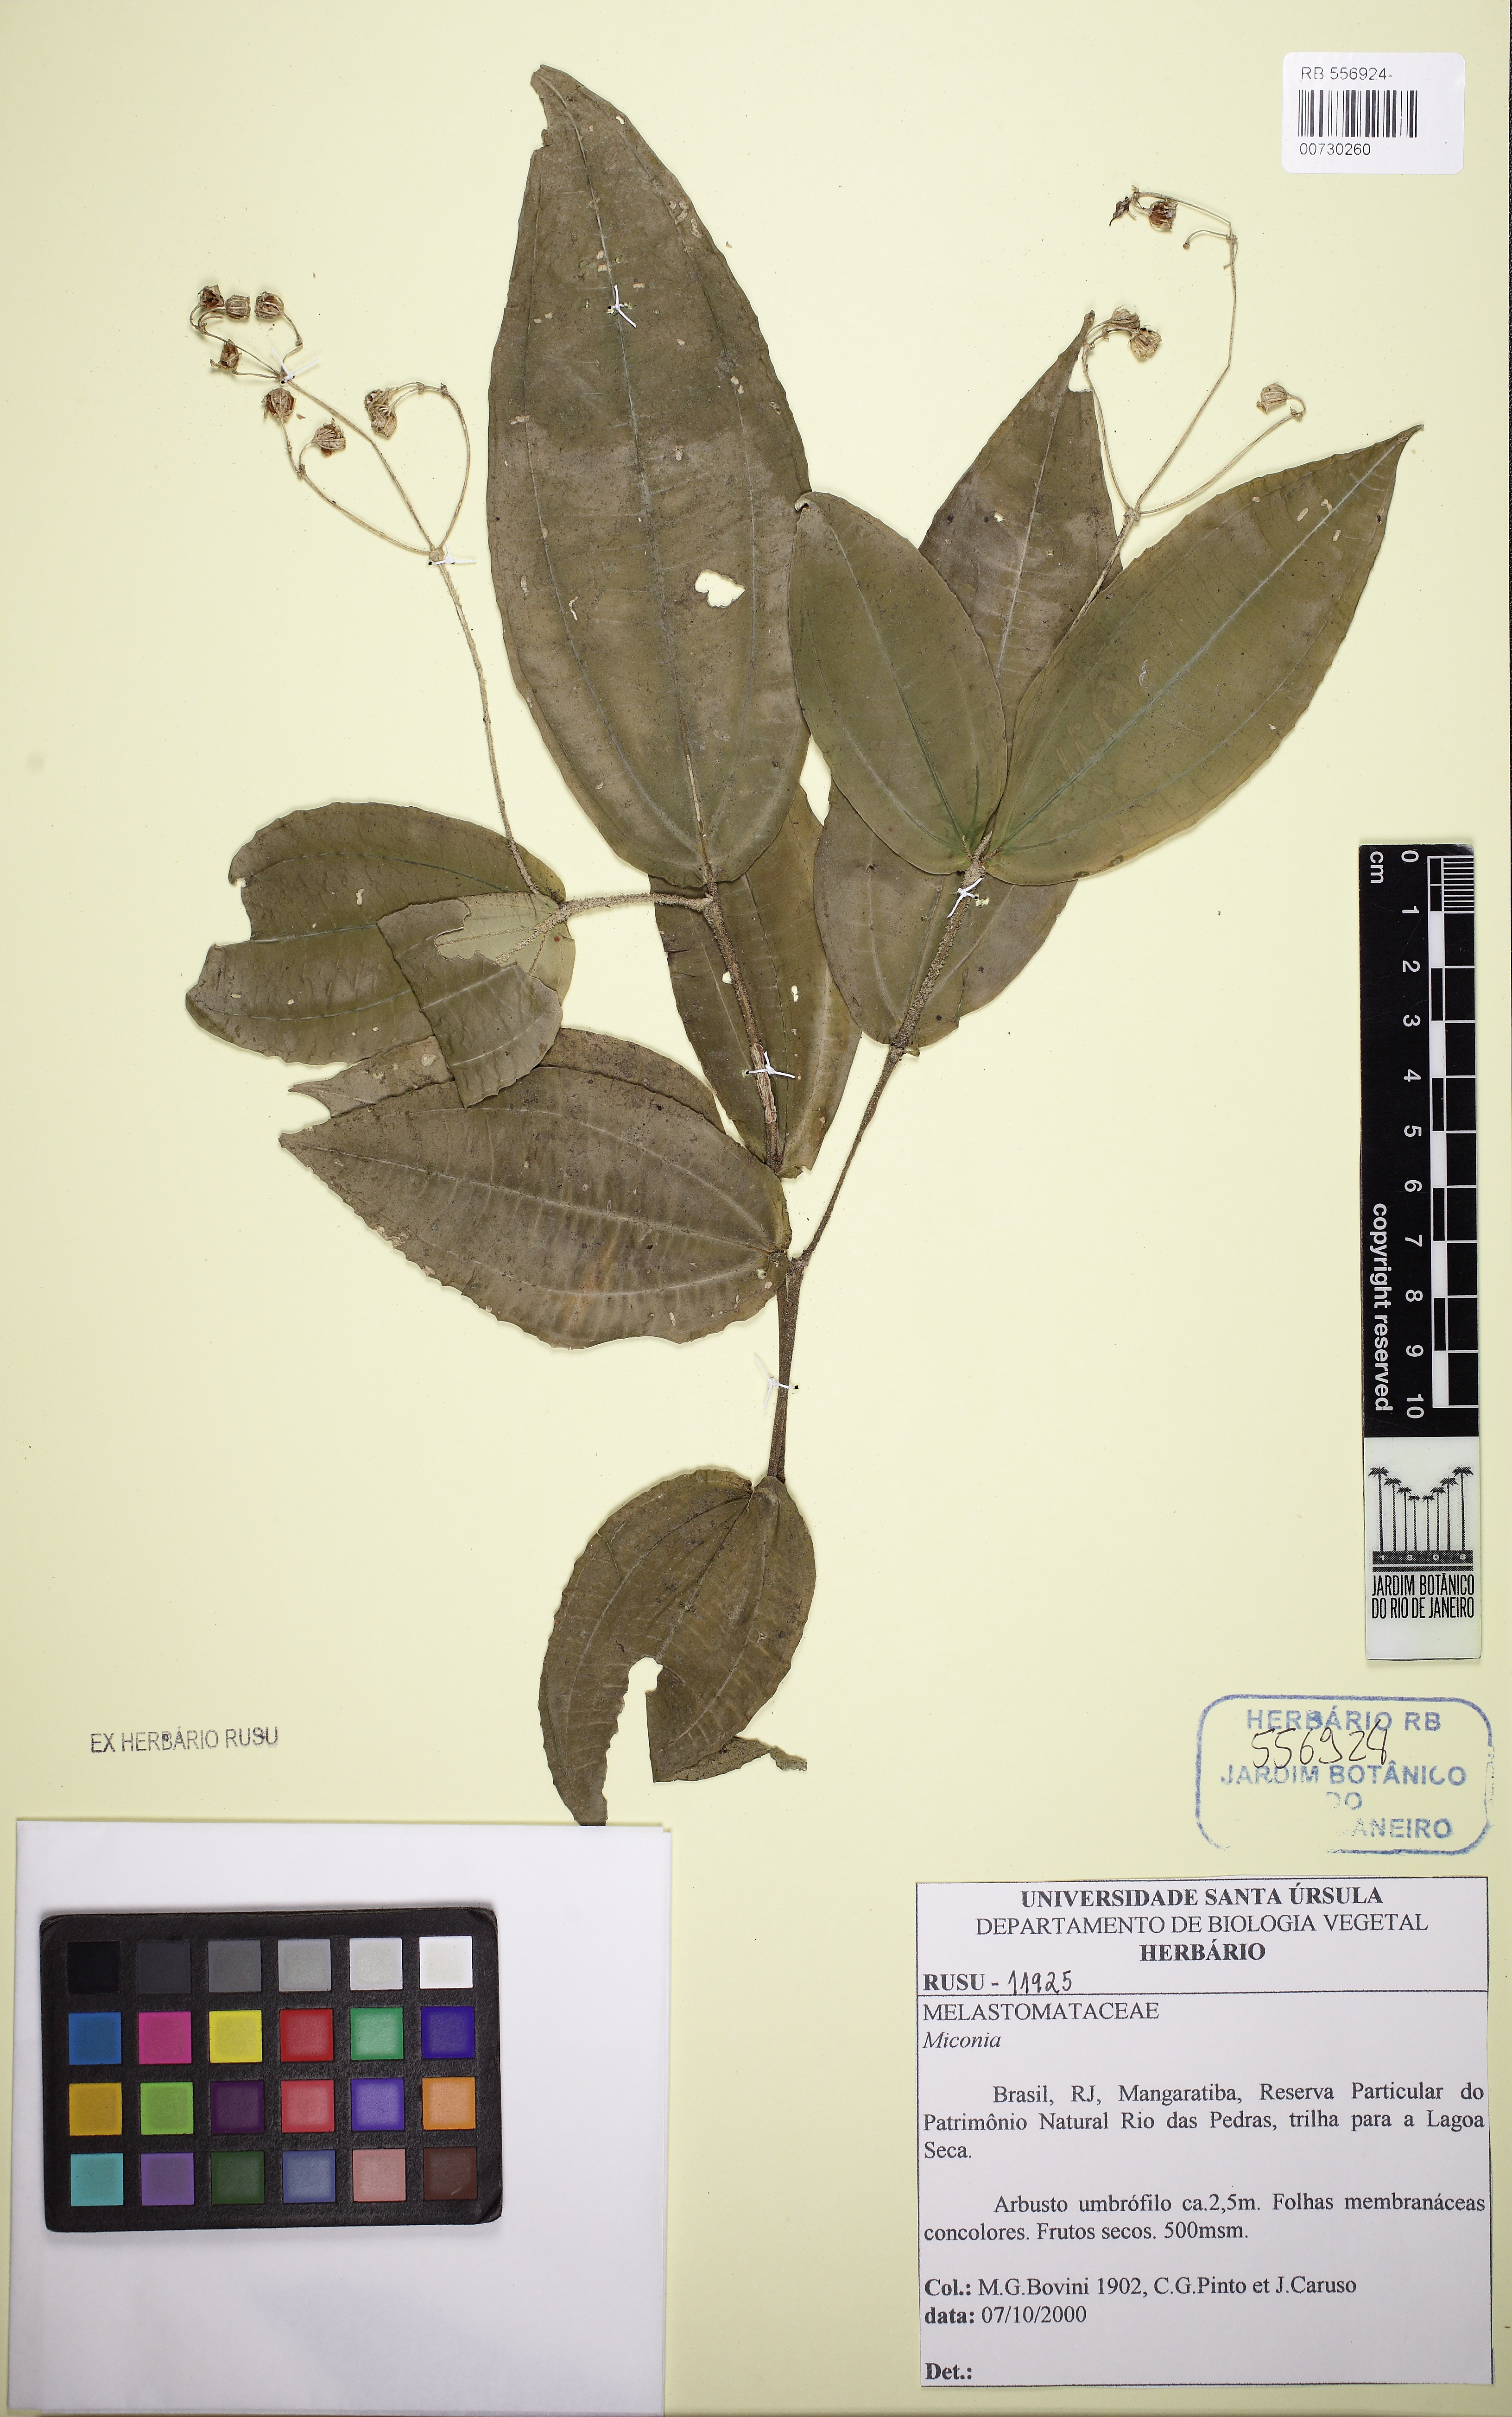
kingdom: Plantae
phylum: Tracheophyta
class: Magnoliopsida
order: Myrtales
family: Melastomataceae
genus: Meriania
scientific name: Meriania baumgratziana
